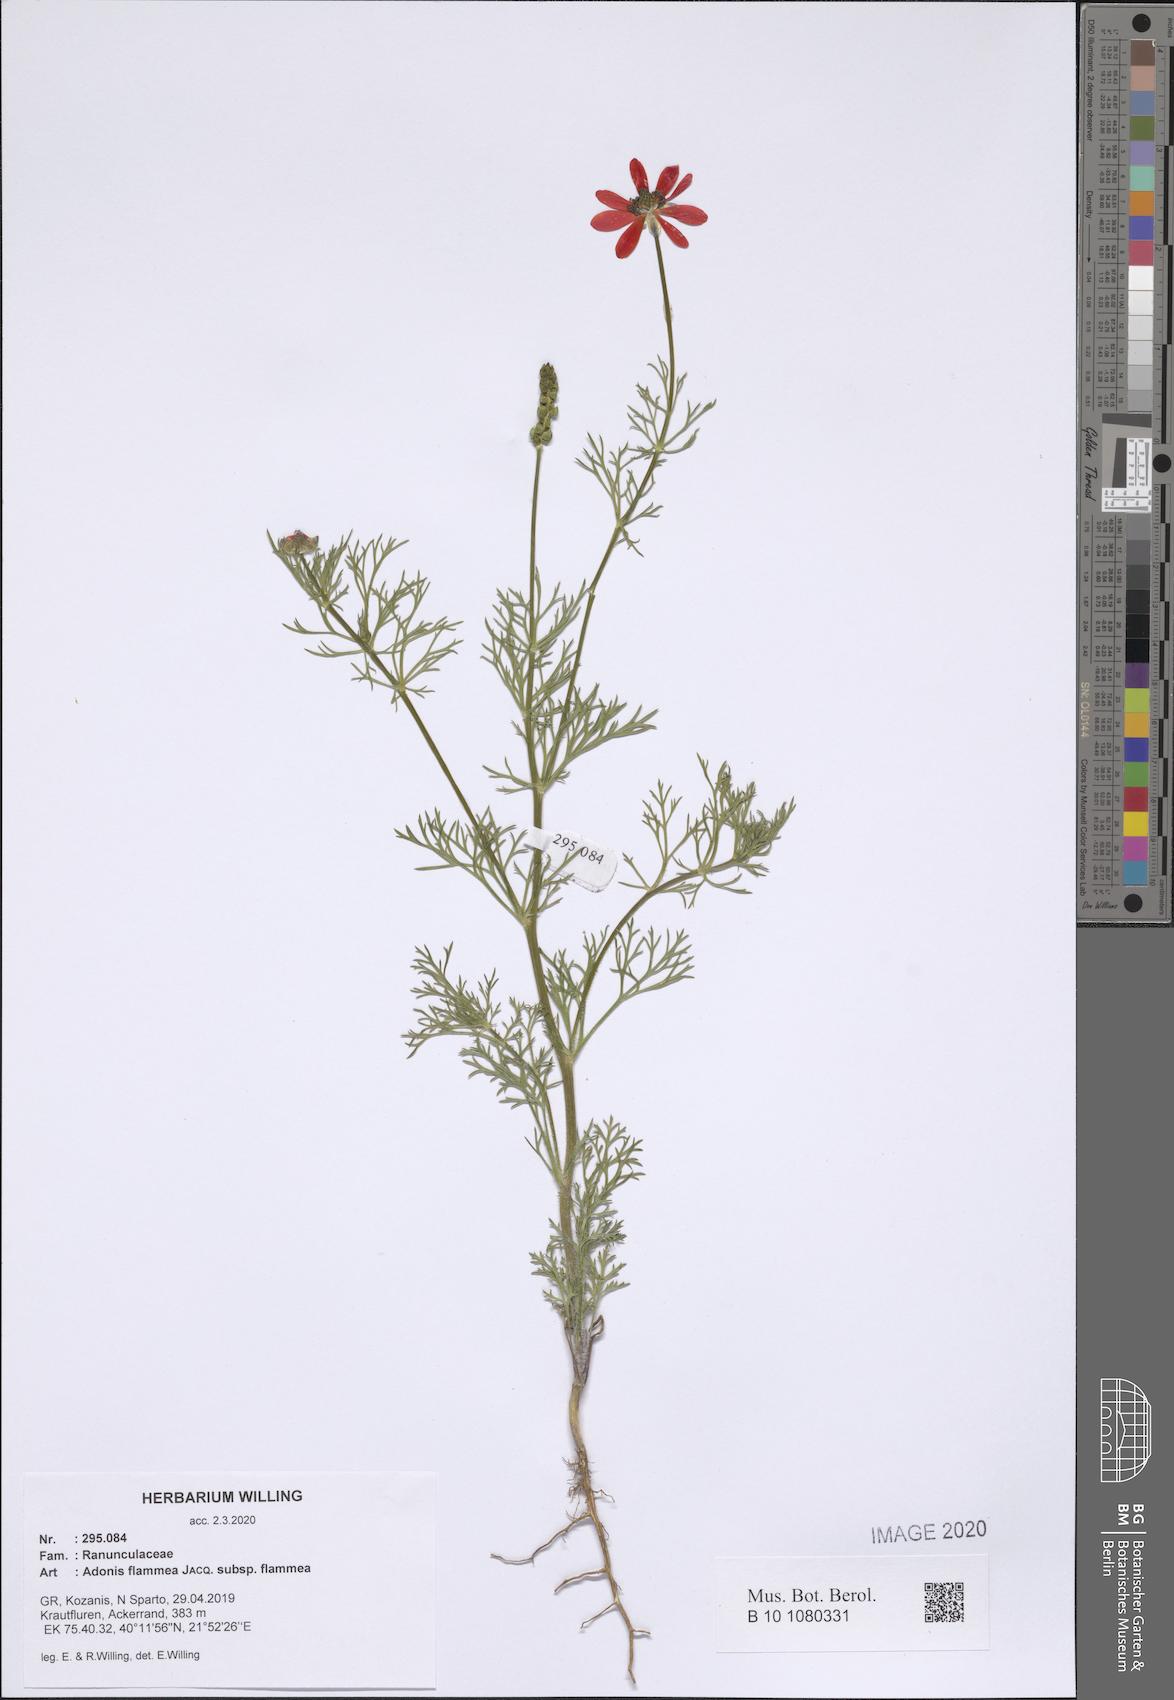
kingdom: Plantae
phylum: Tracheophyta
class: Magnoliopsida
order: Ranunculales
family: Ranunculaceae
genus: Adonis
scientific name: Adonis flammea
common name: Large pheasant's-eye
